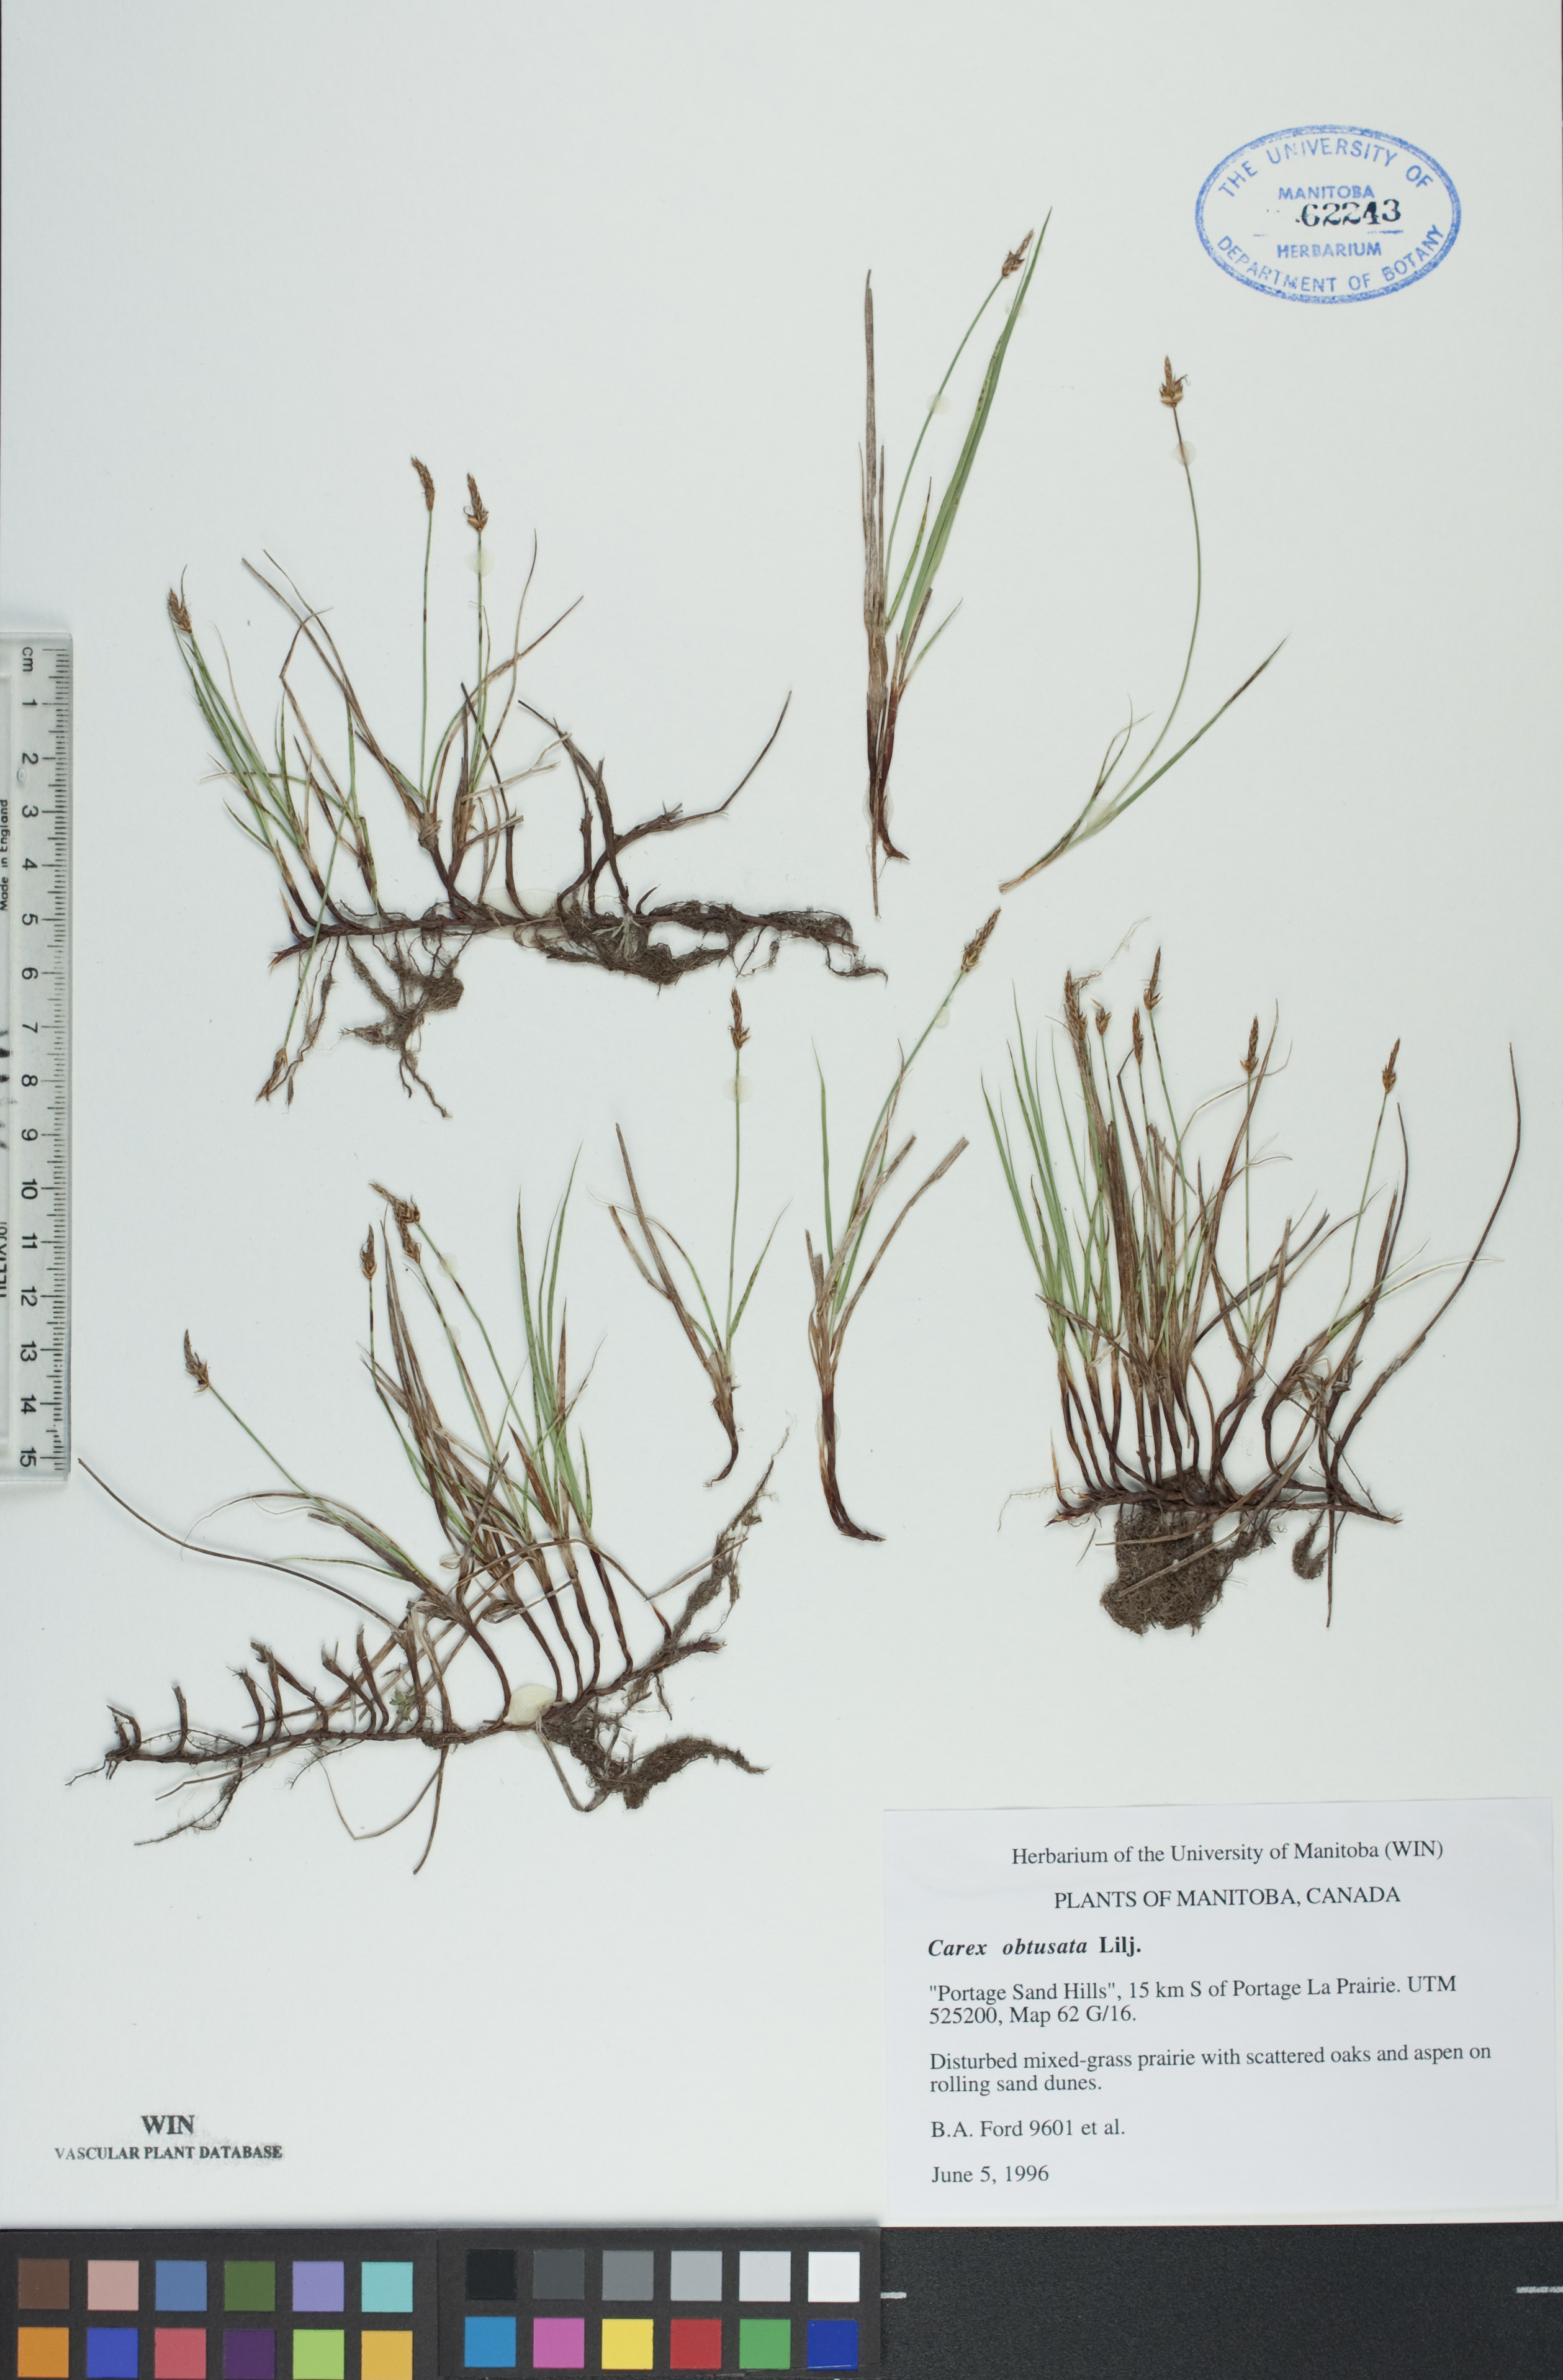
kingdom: Plantae
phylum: Tracheophyta
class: Liliopsida
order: Poales
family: Cyperaceae
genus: Carex
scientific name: Carex obtusata
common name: Blunt sedge
